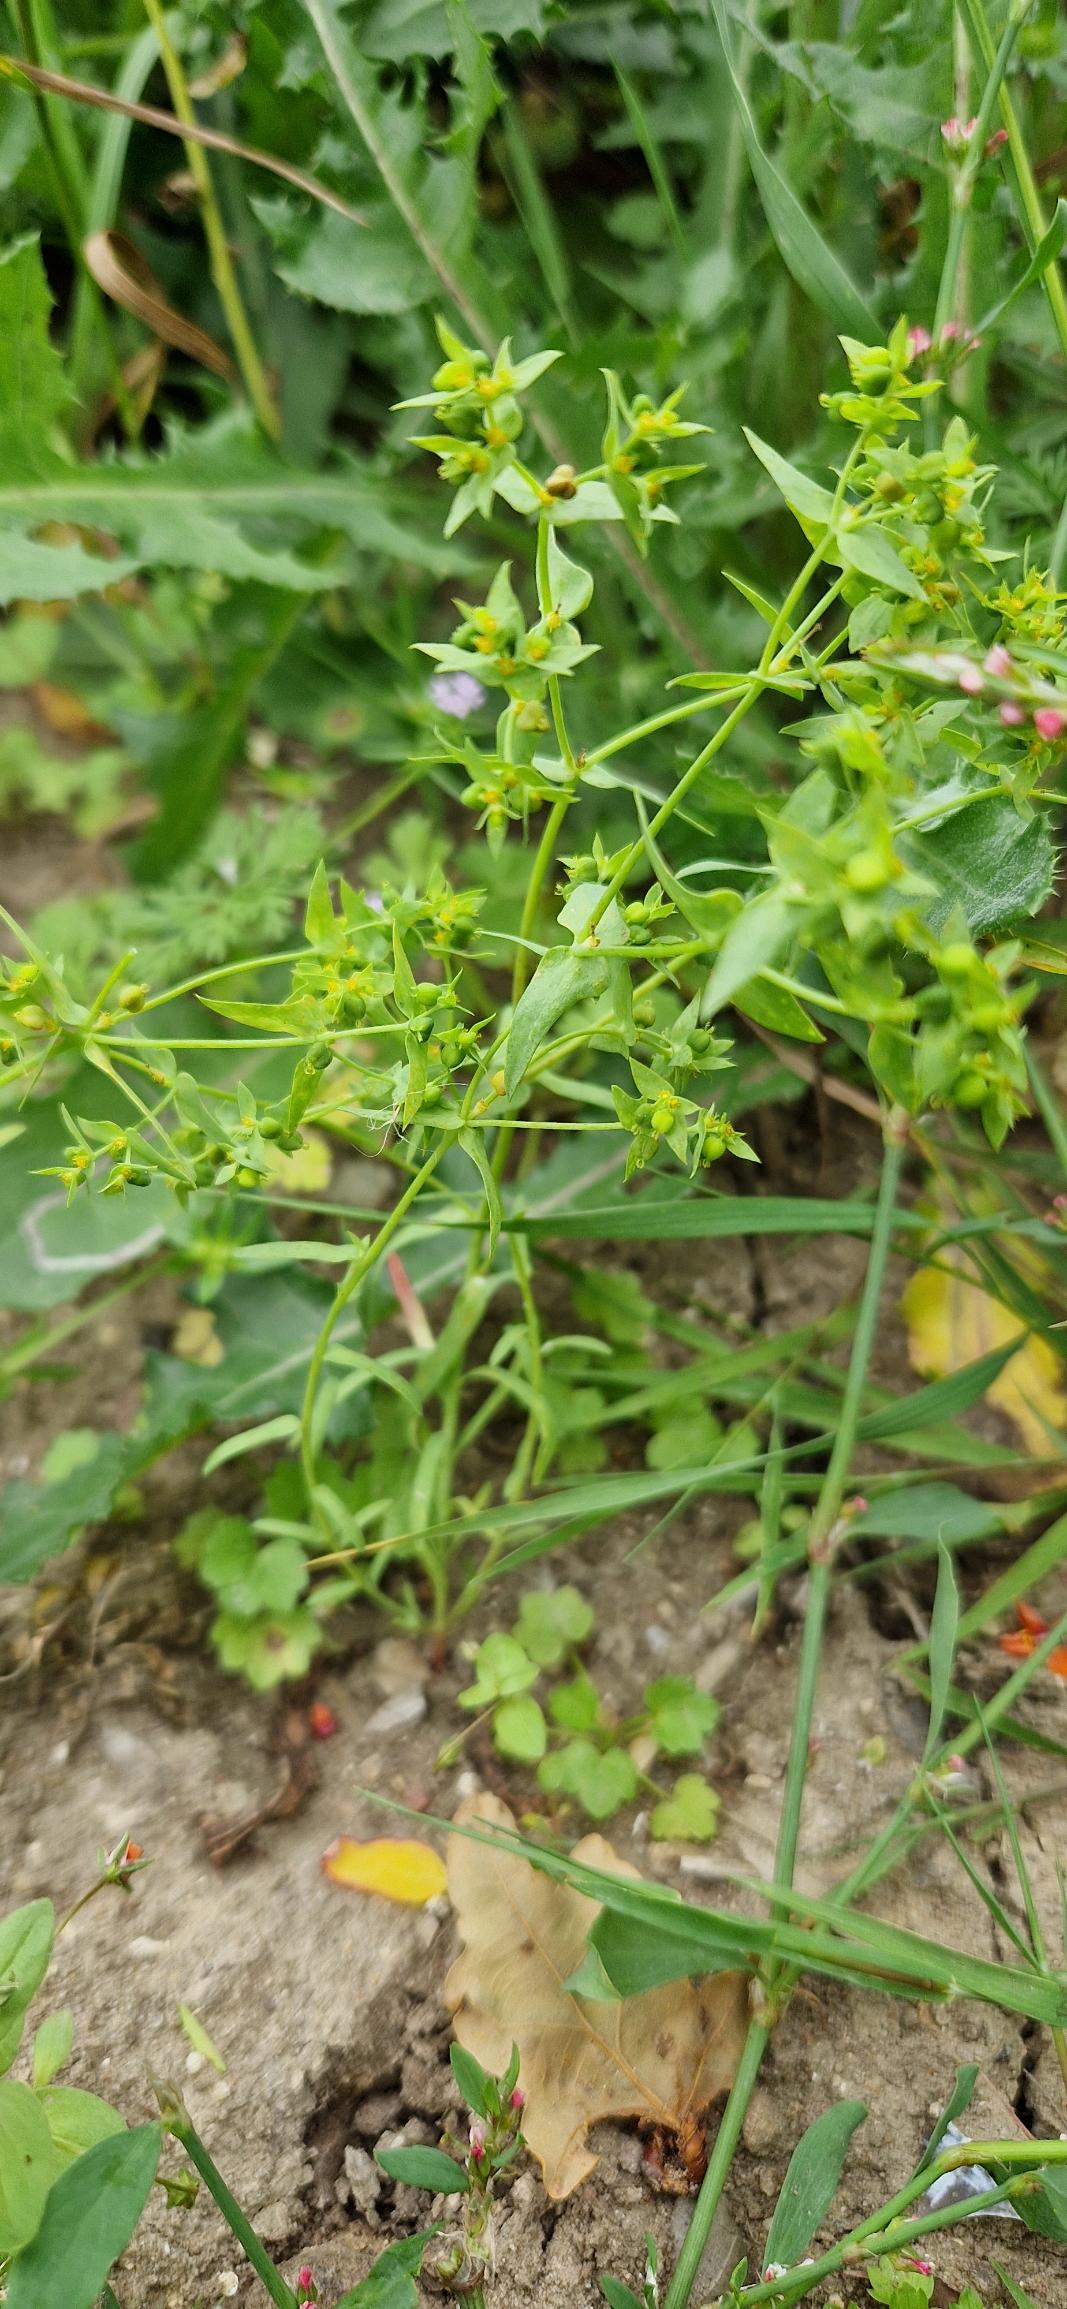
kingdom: Plantae
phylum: Tracheophyta
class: Magnoliopsida
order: Malpighiales
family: Euphorbiaceae
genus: Euphorbia
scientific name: Euphorbia exigua
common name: Liden vortemælk
